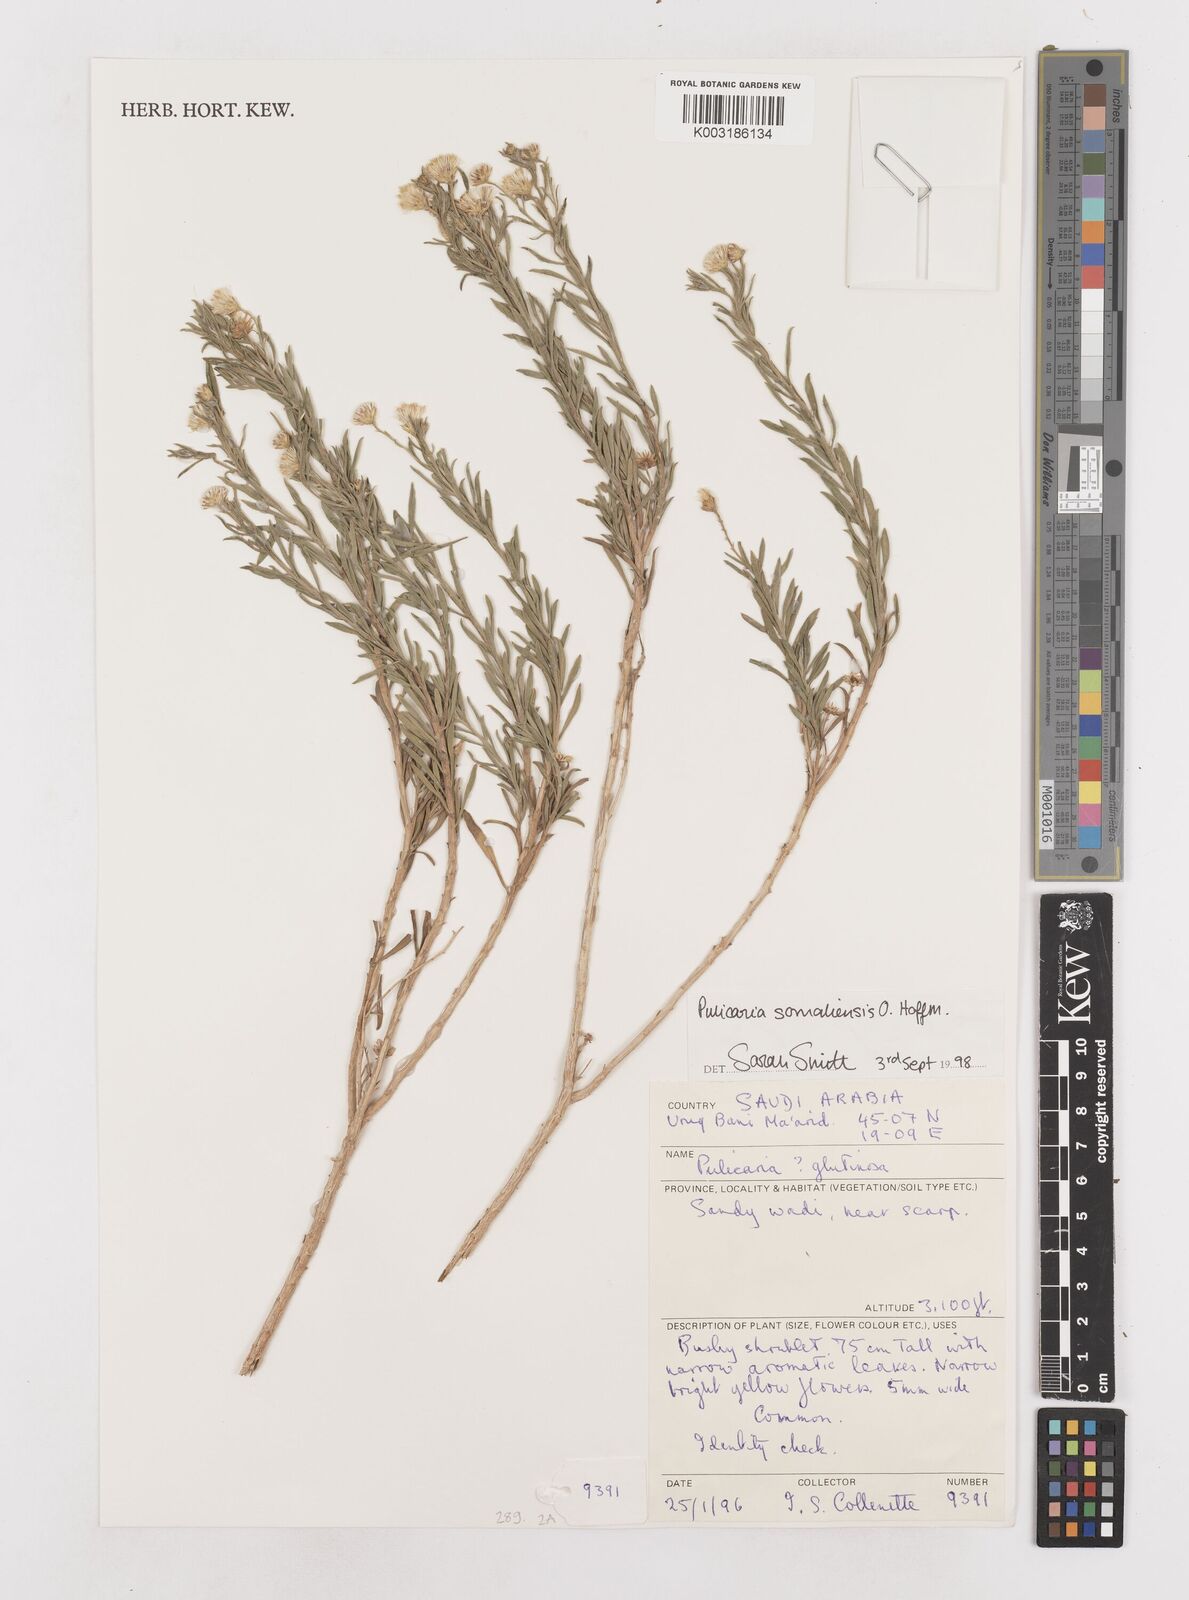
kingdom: Plantae
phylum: Tracheophyta
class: Magnoliopsida
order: Asterales
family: Asteraceae
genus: Pegolettia
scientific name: Pegolettia
